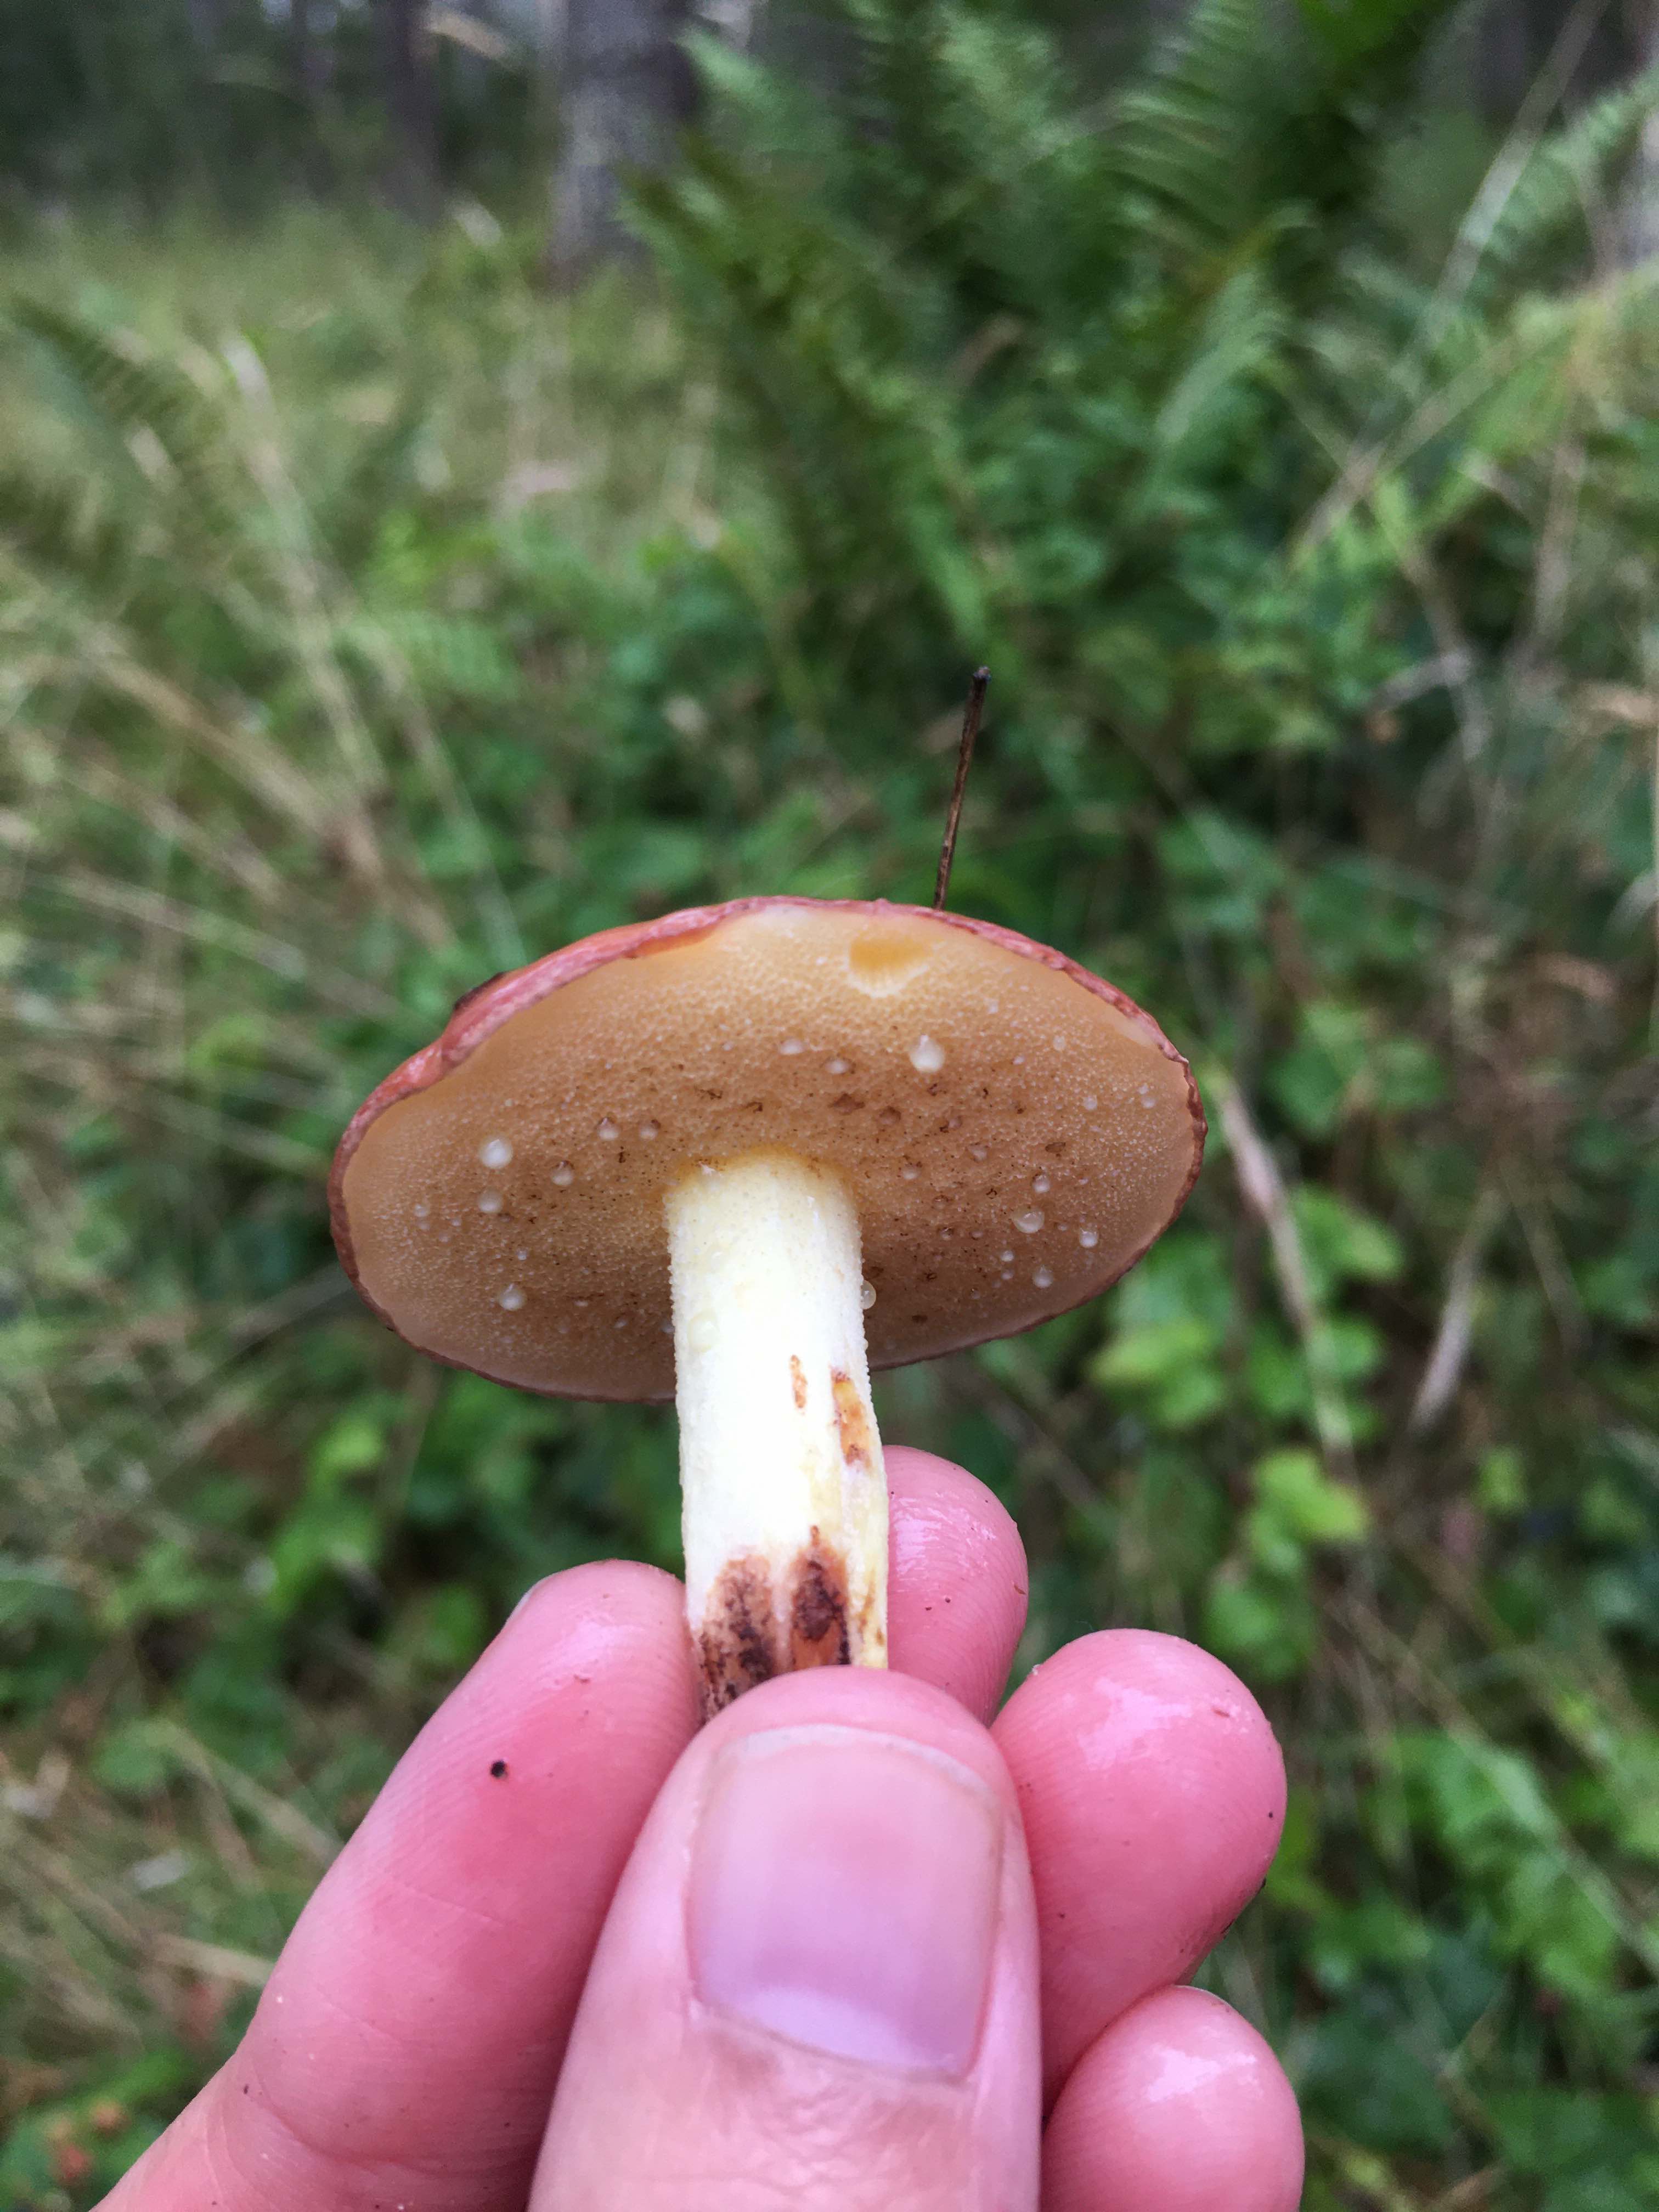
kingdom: Fungi
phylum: Basidiomycota
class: Agaricomycetes
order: Boletales
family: Suillaceae
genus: Suillus
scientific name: Suillus granulatus
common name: kornet slimrørhat
